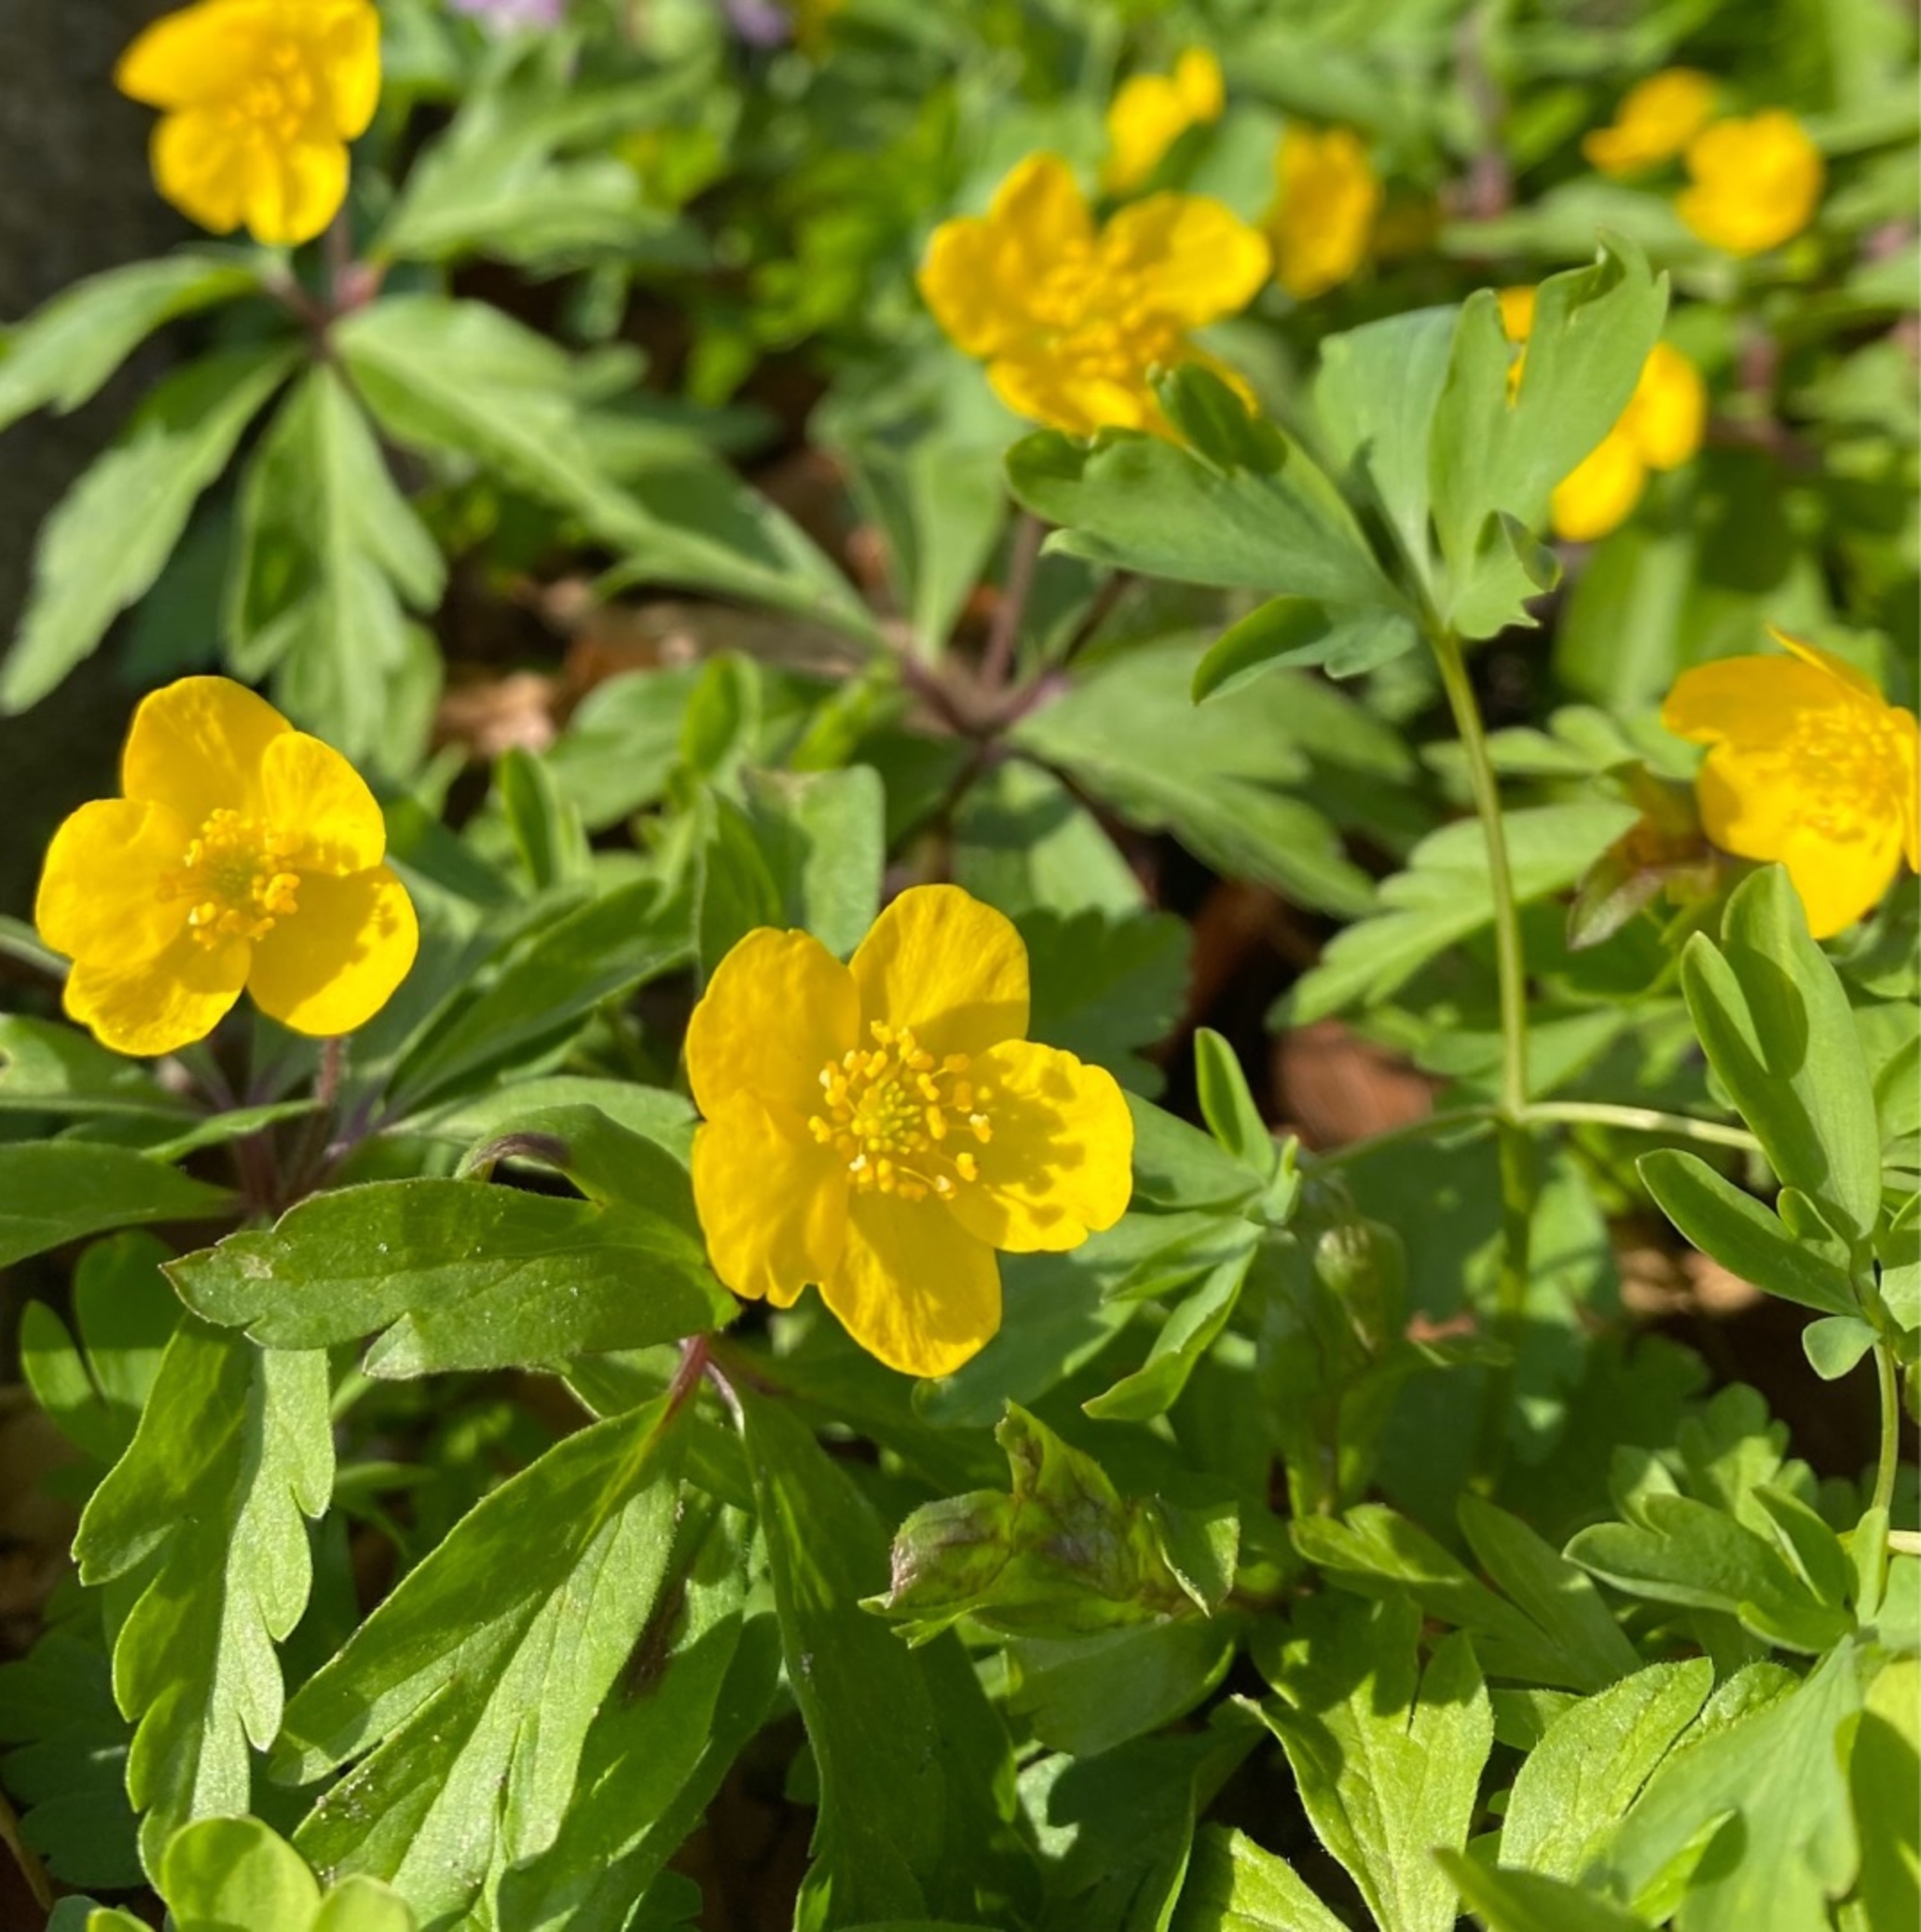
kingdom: Plantae
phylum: Tracheophyta
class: Magnoliopsida
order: Ranunculales
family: Ranunculaceae
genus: Anemone
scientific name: Anemone ranunculoides
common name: Gul anemone
